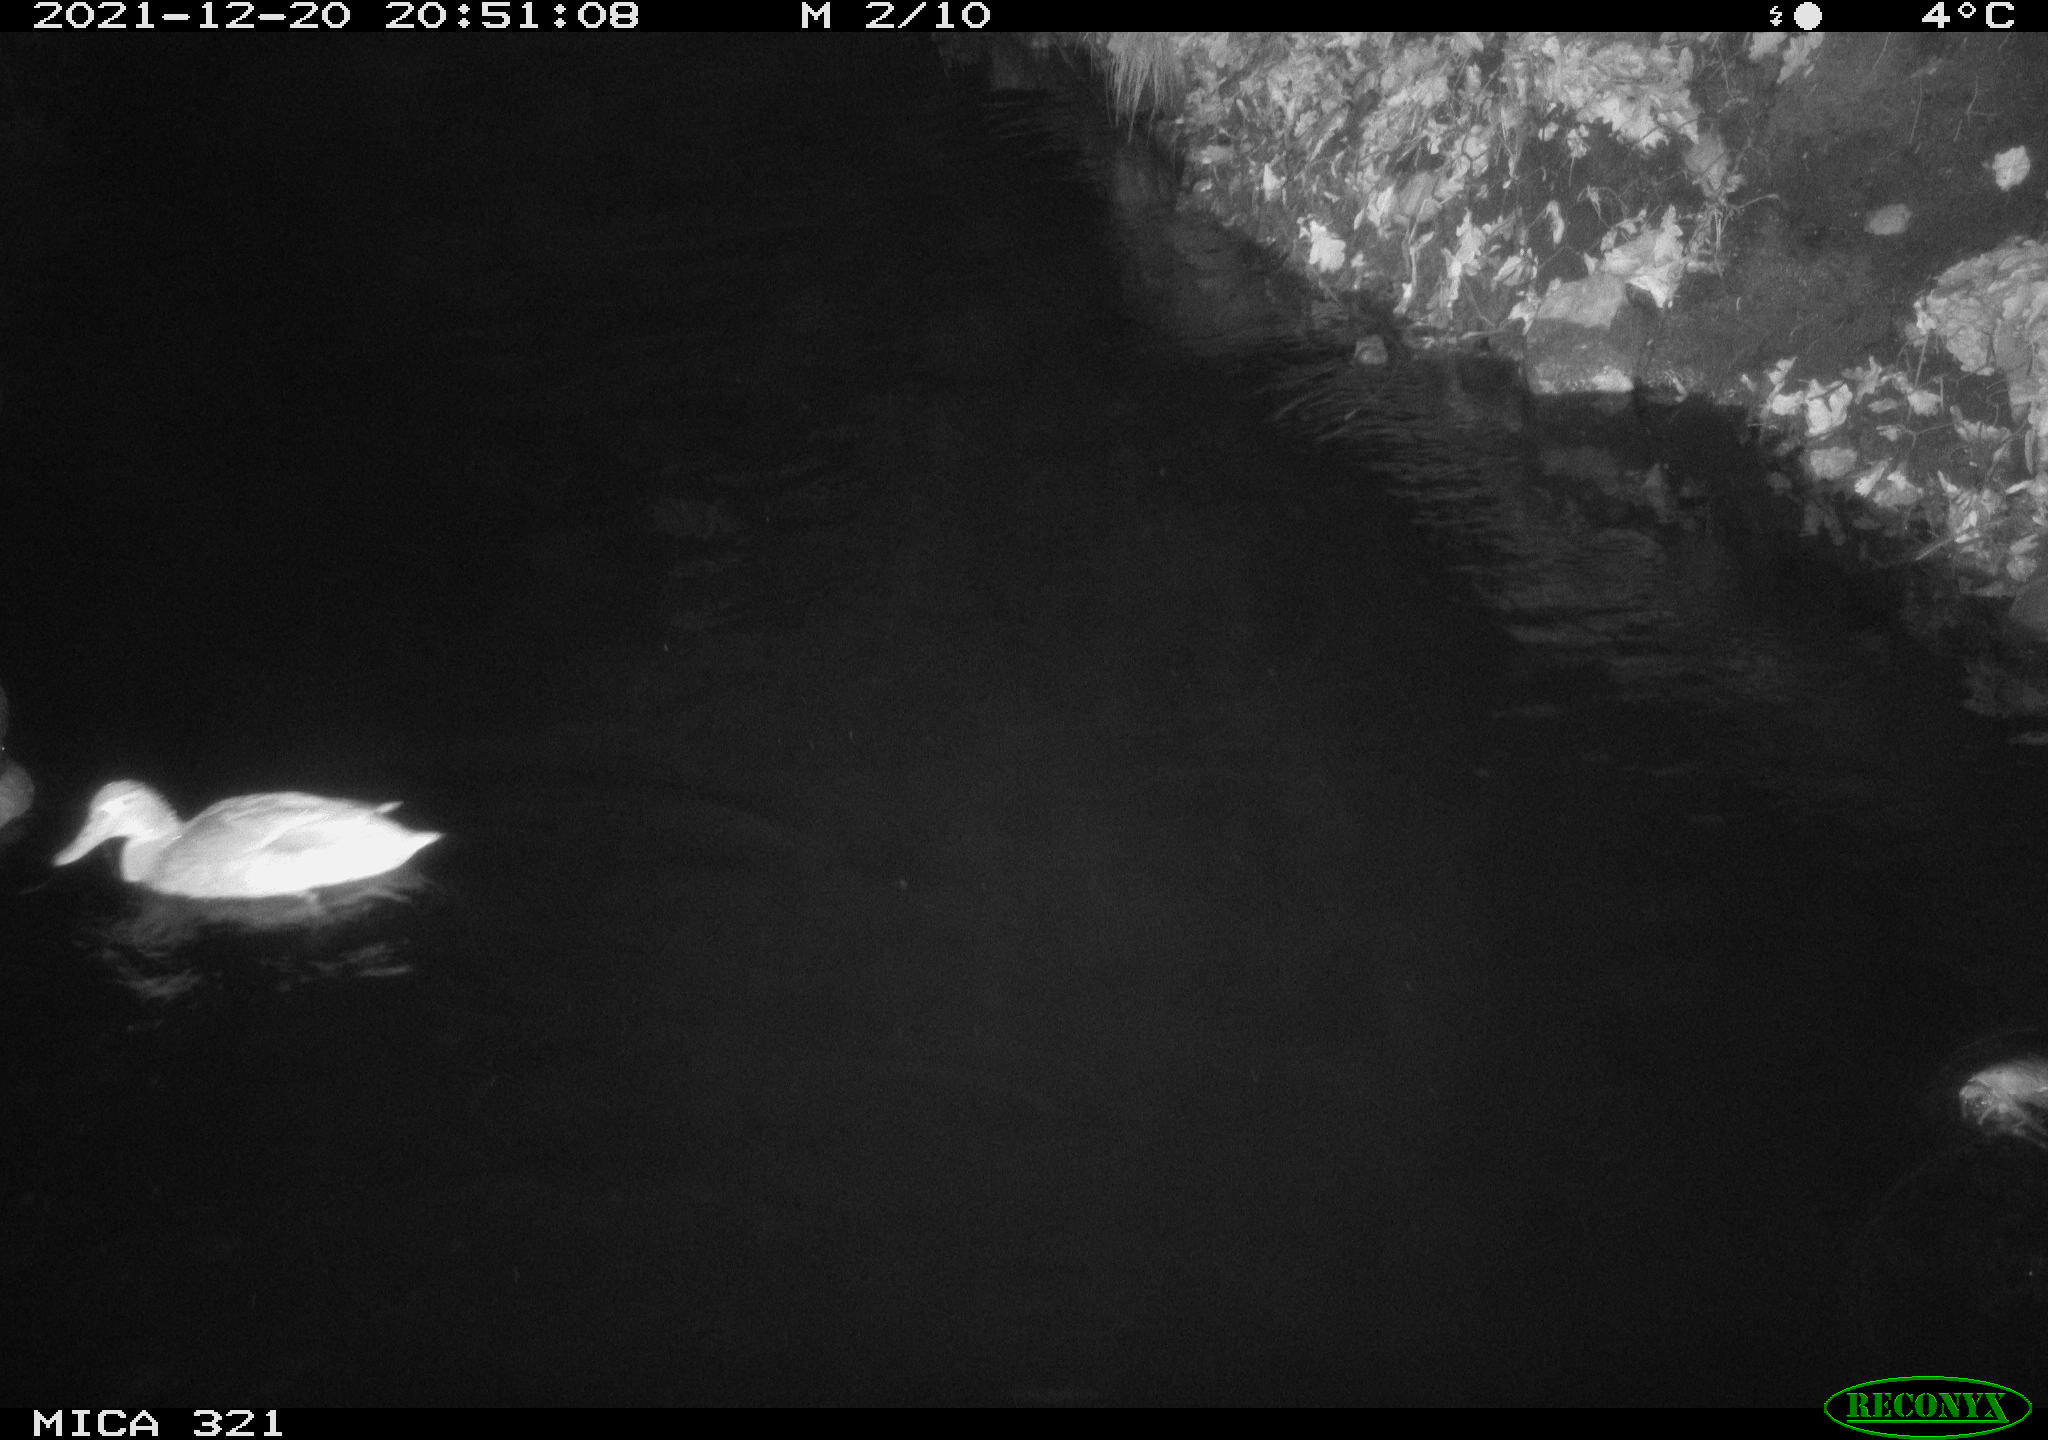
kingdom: Animalia
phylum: Chordata
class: Aves
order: Anseriformes
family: Anatidae
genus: Anas
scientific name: Anas
